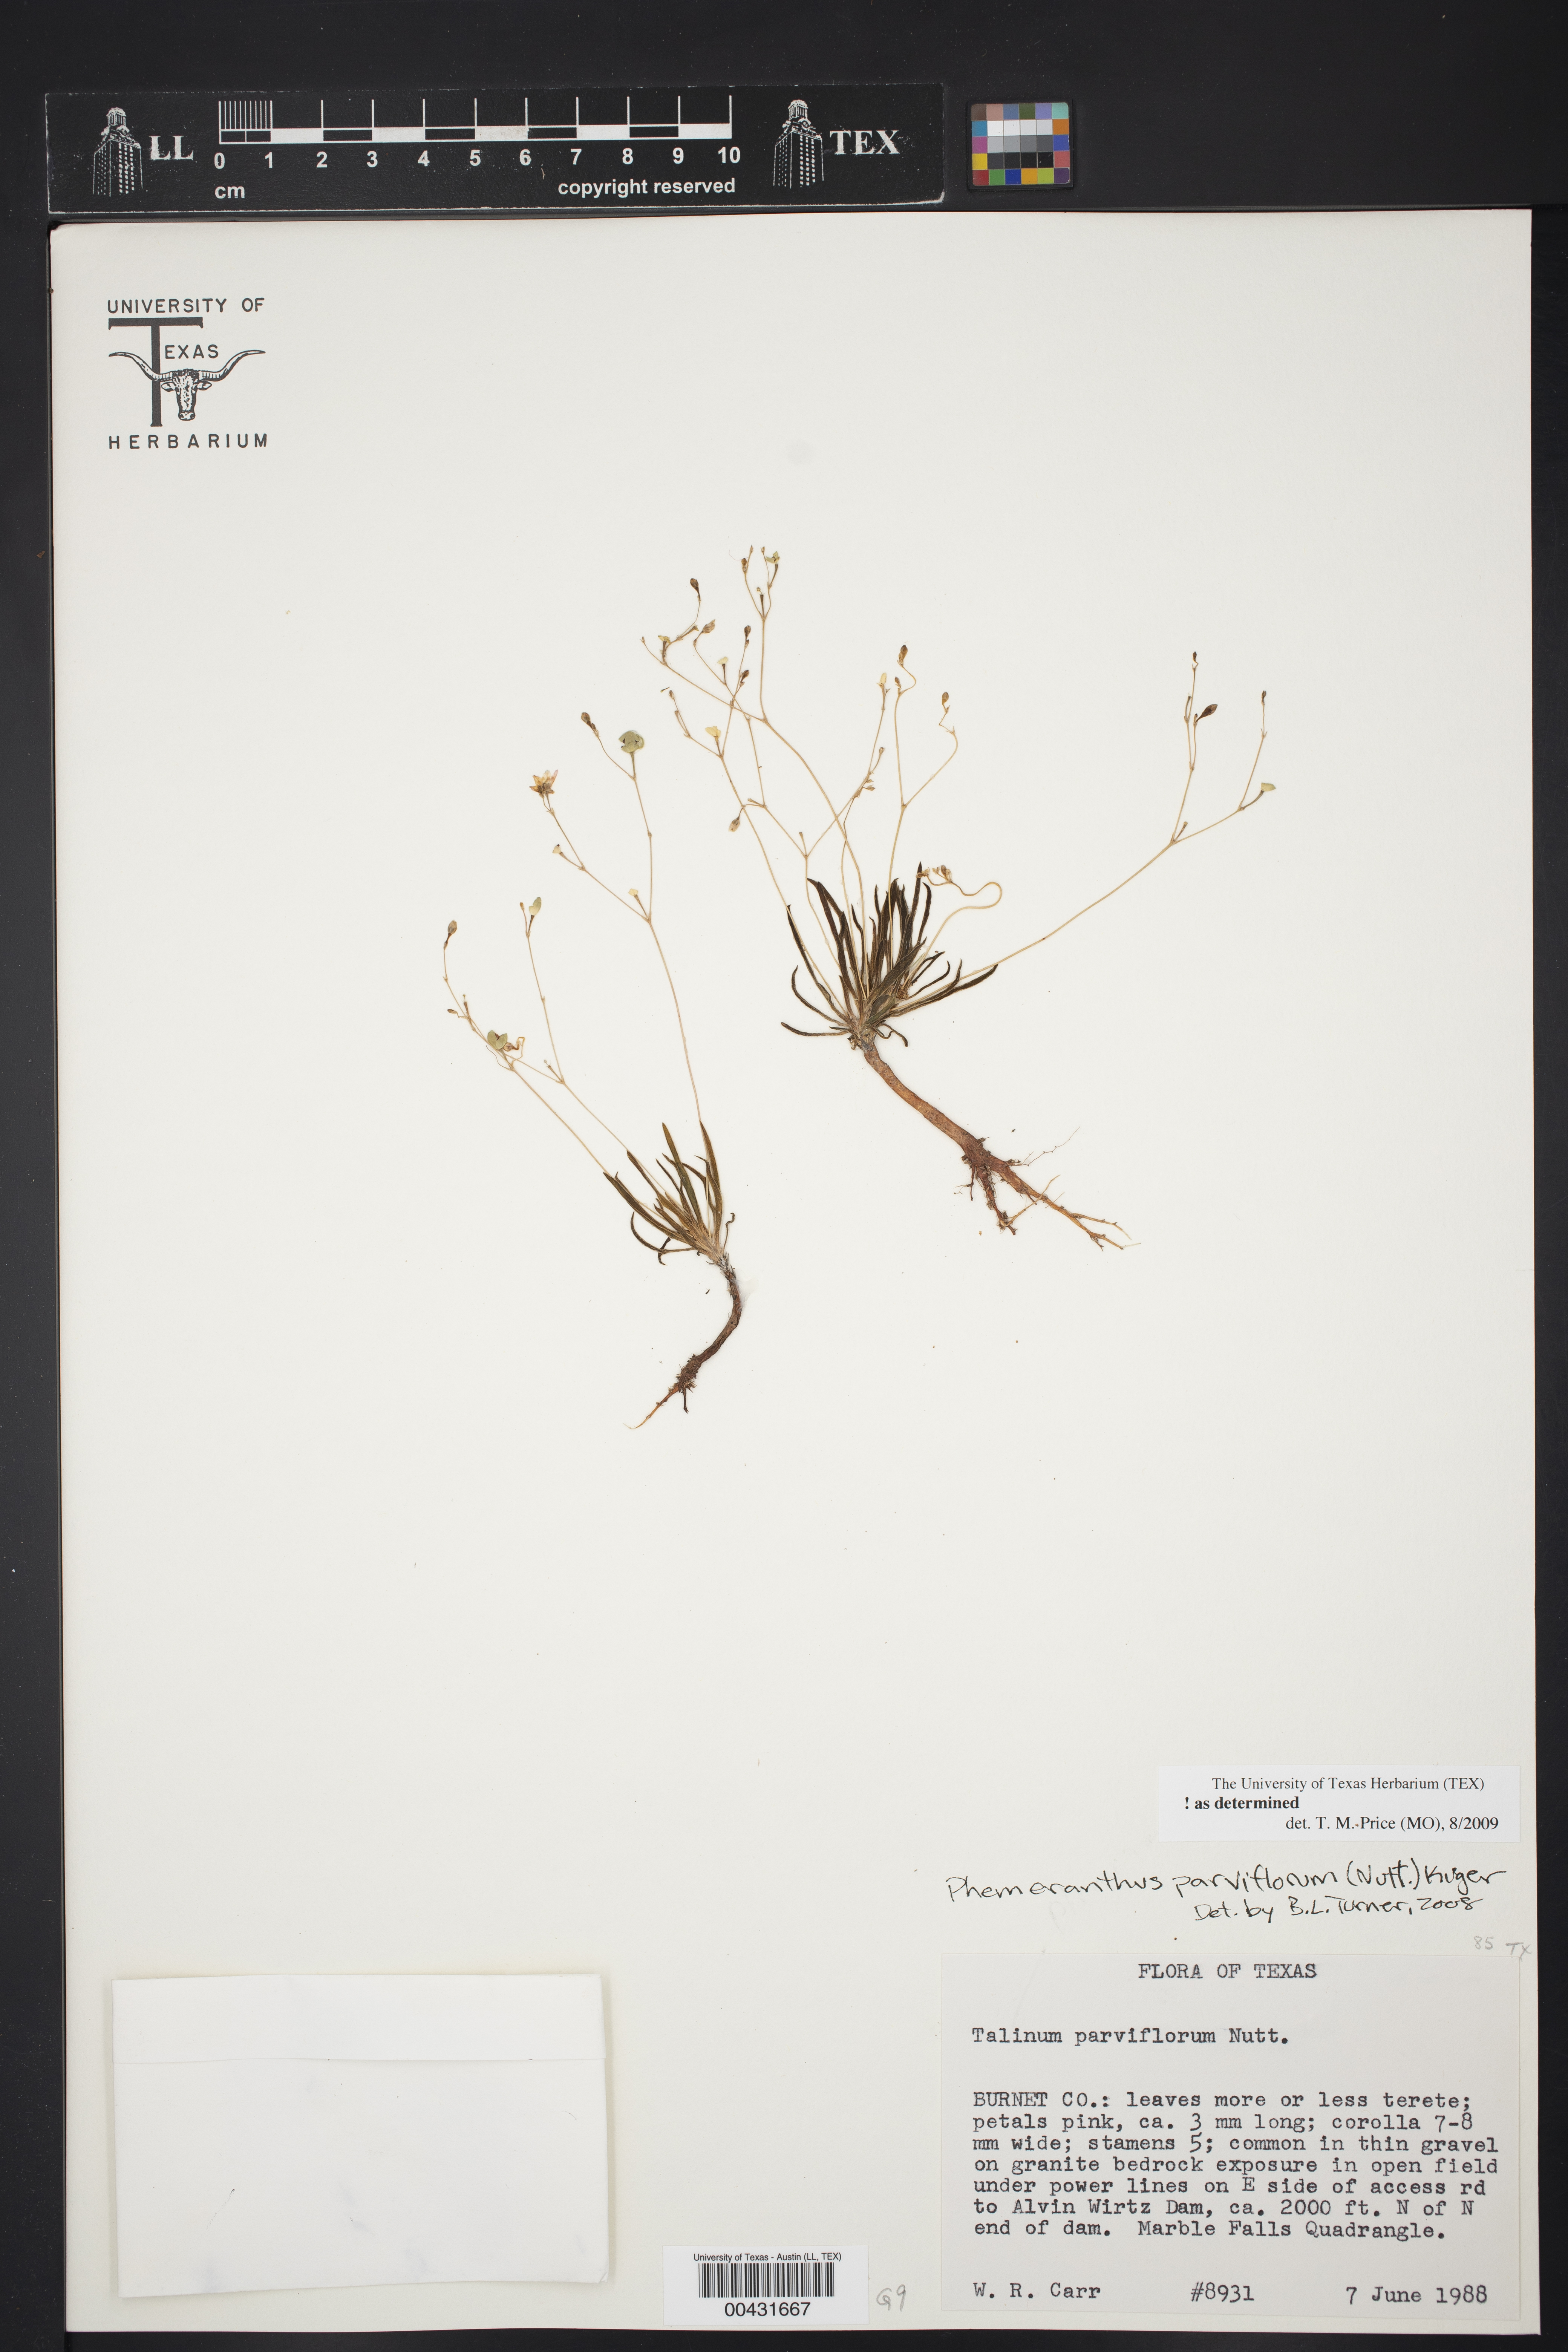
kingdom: Plantae
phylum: Tracheophyta
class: Magnoliopsida
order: Caryophyllales
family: Montiaceae
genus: Phemeranthus
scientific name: Phemeranthus parviflorus
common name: Sunbright
